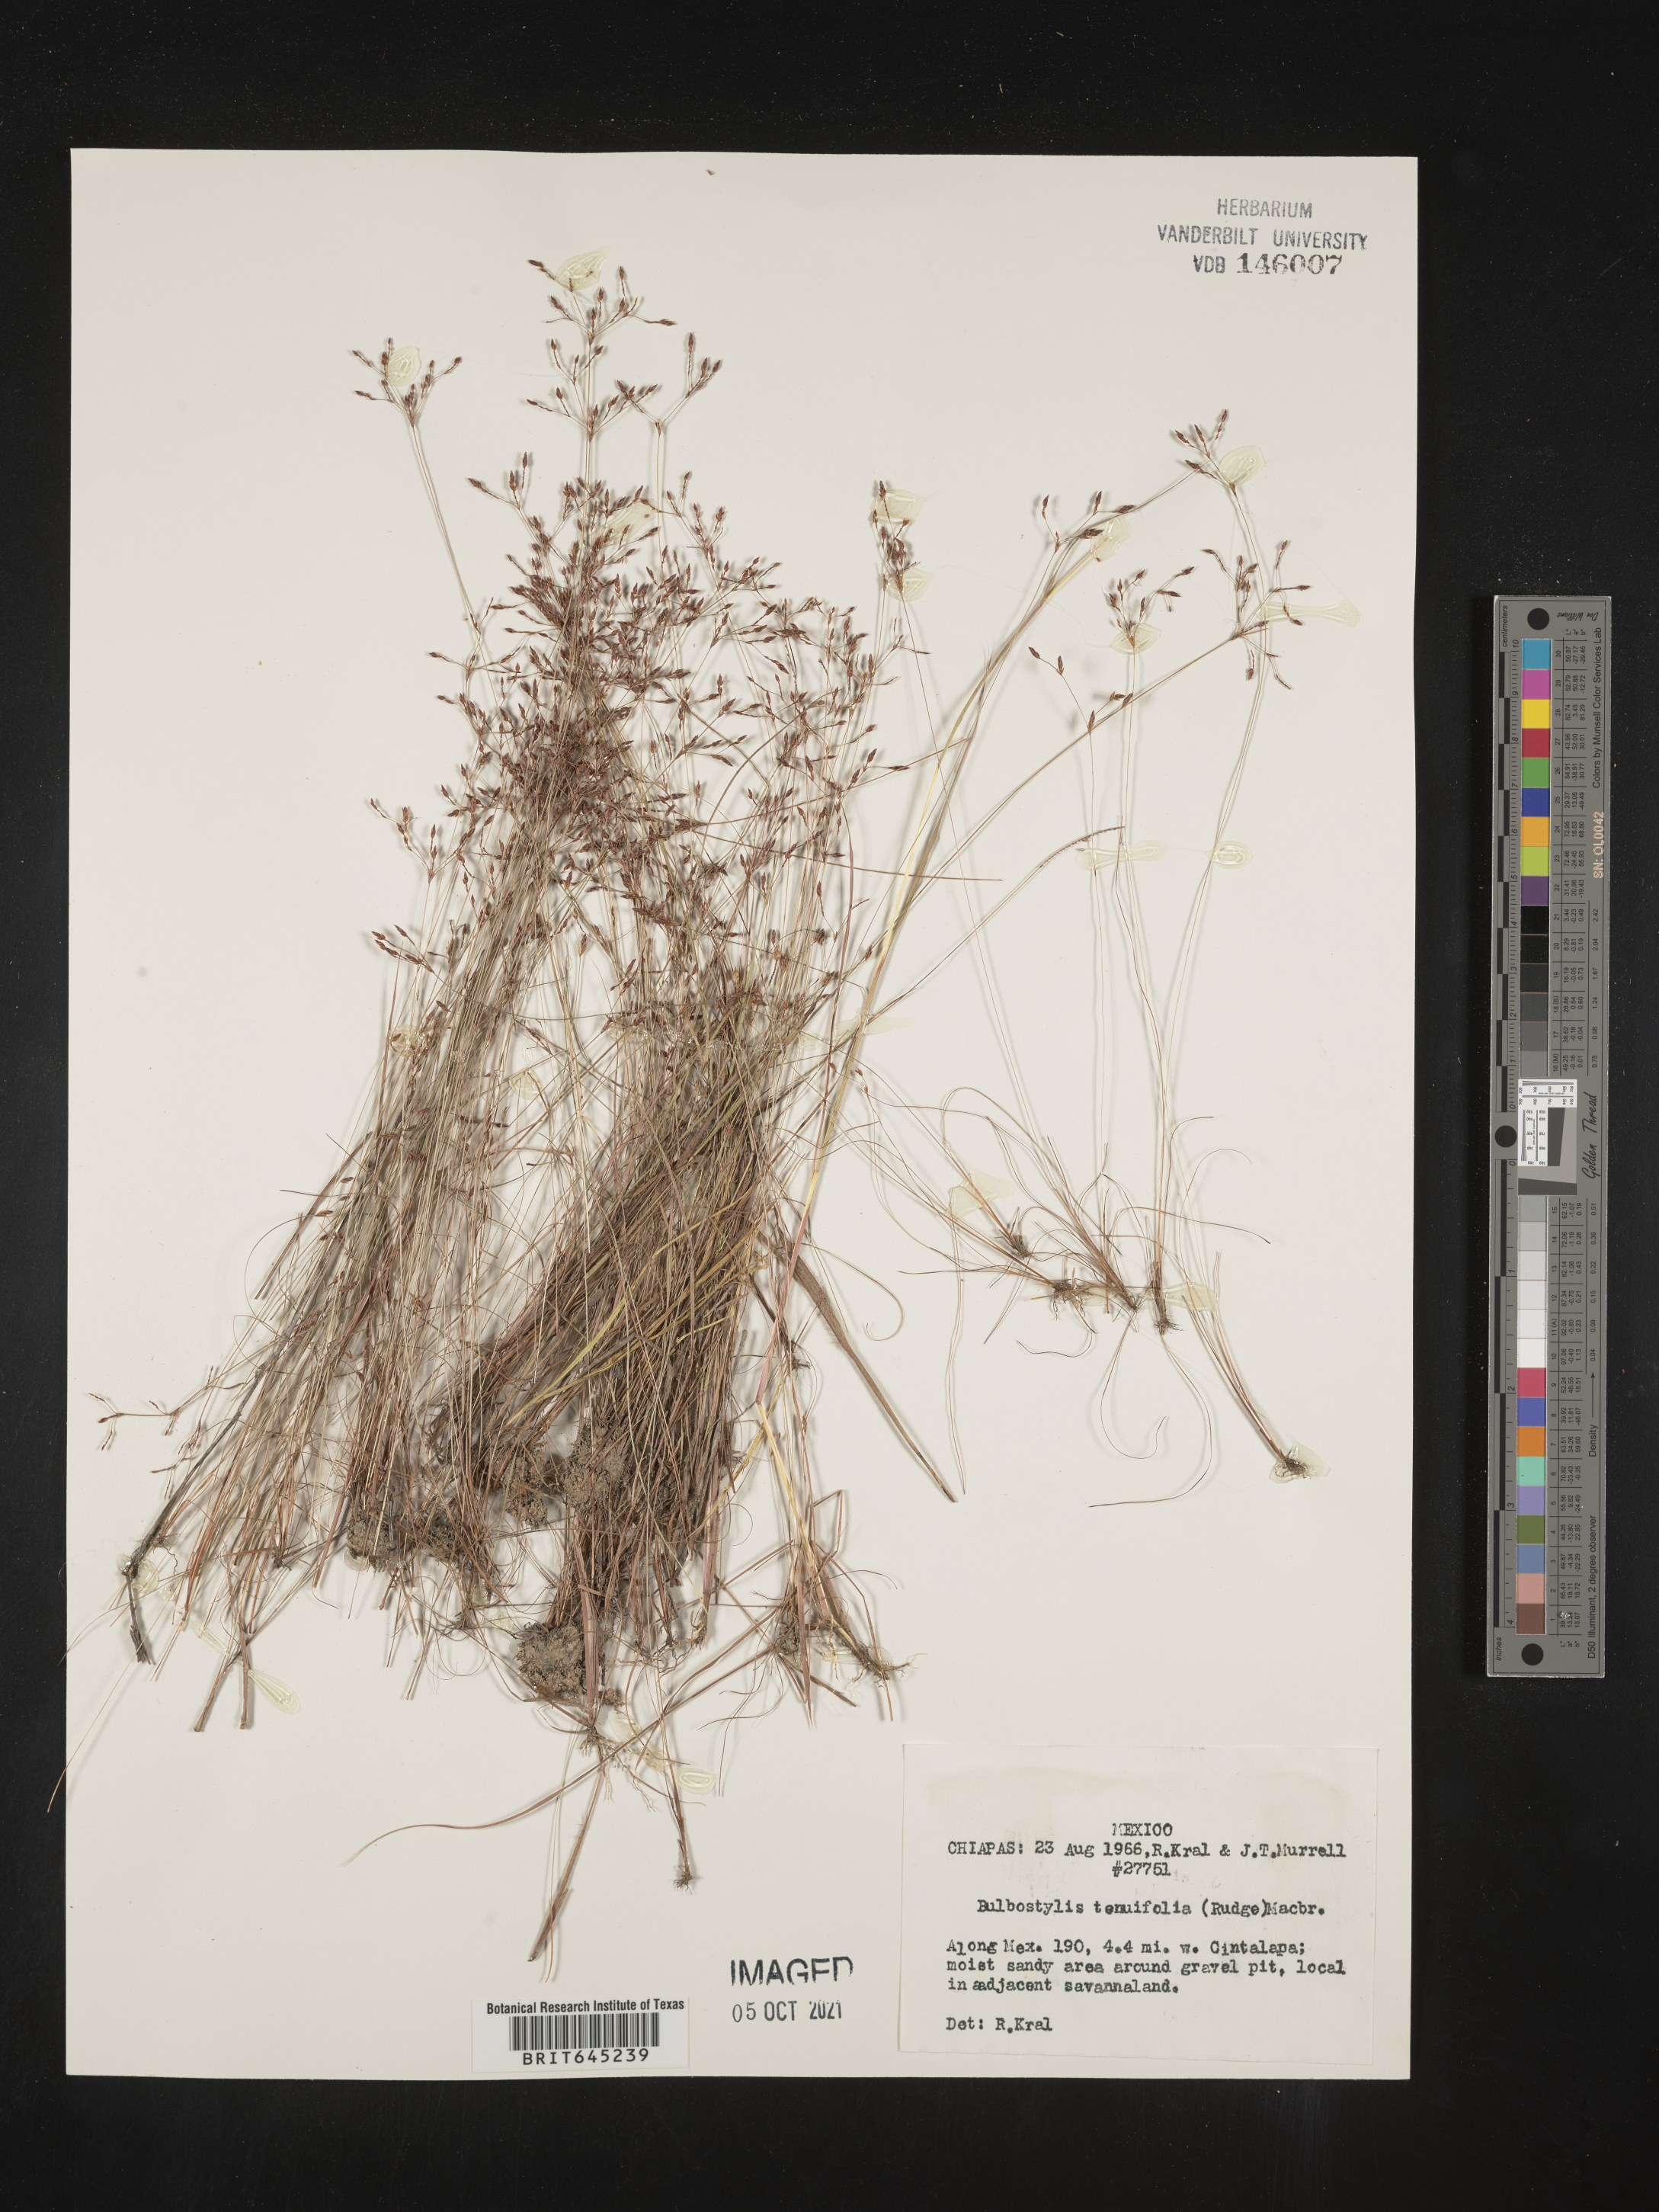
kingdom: Plantae
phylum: Tracheophyta
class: Liliopsida
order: Poales
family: Cyperaceae
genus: Eleocharis
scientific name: Eleocharis Bulbostylis tenuifolia
